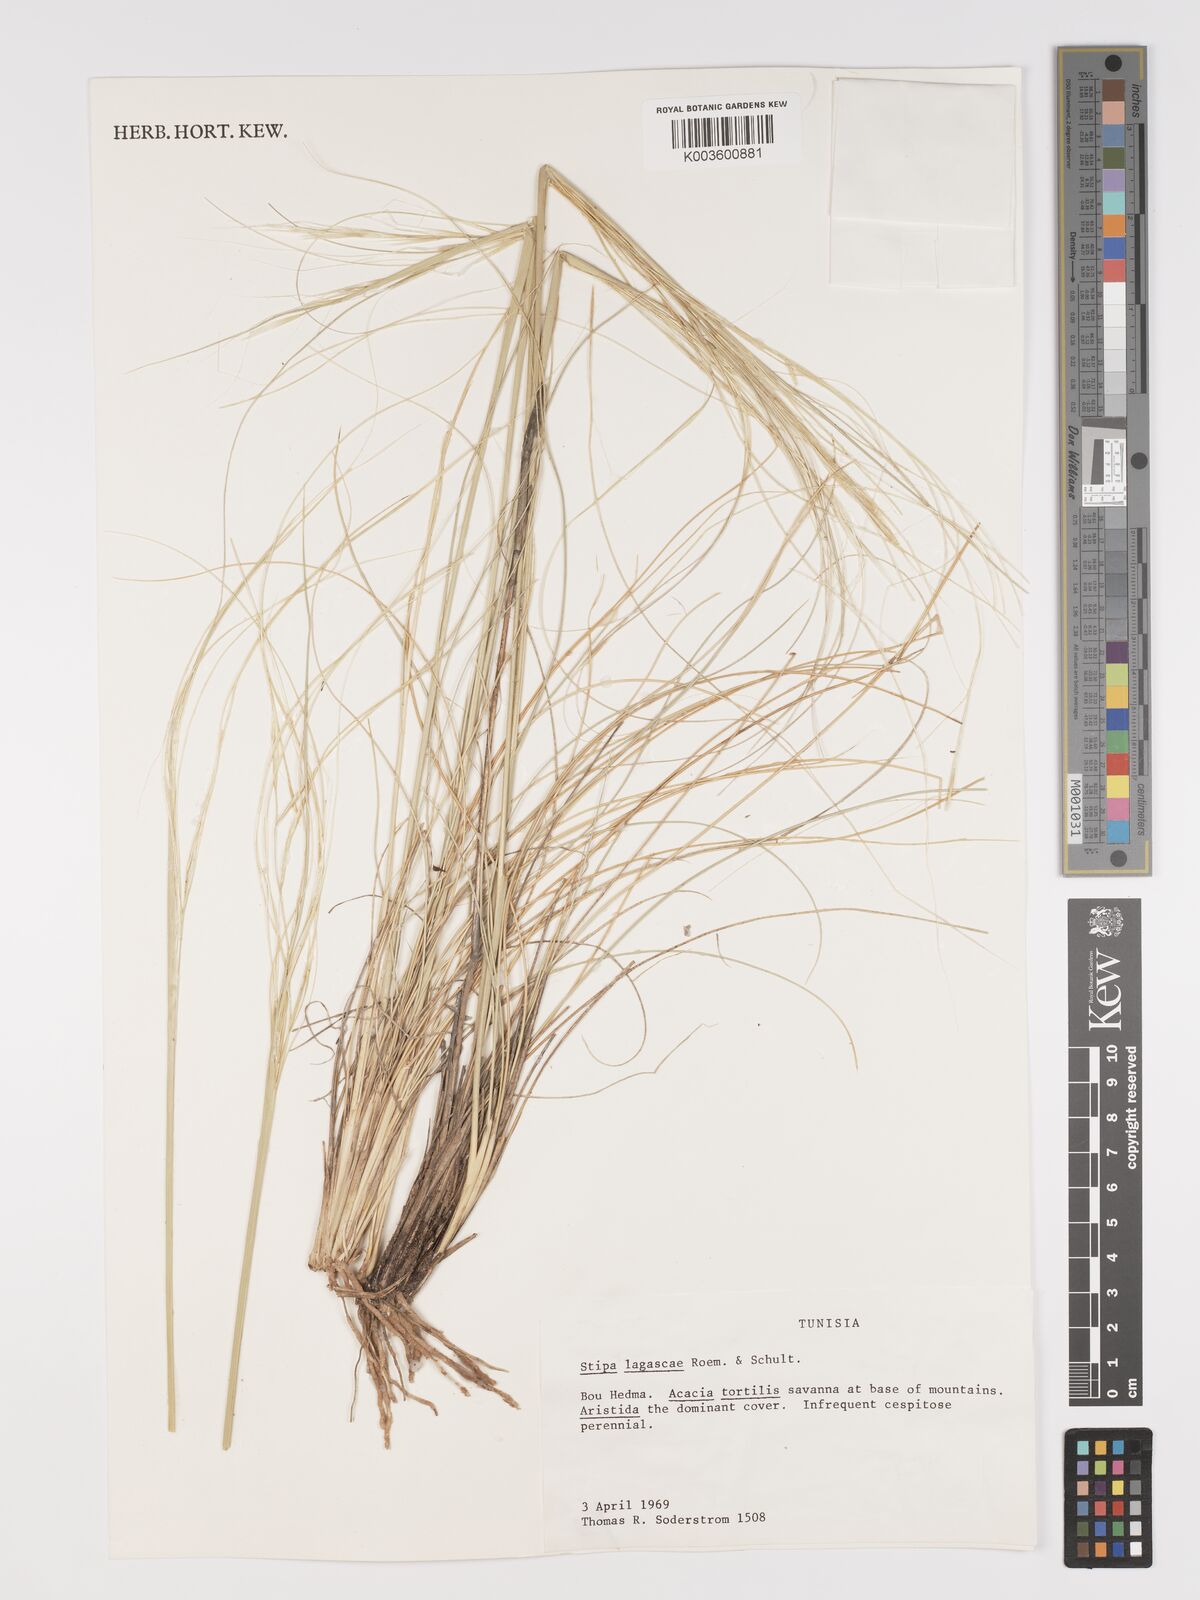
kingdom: Plantae
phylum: Tracheophyta
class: Liliopsida
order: Poales
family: Poaceae
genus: Stipa
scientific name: Stipa lagascae
